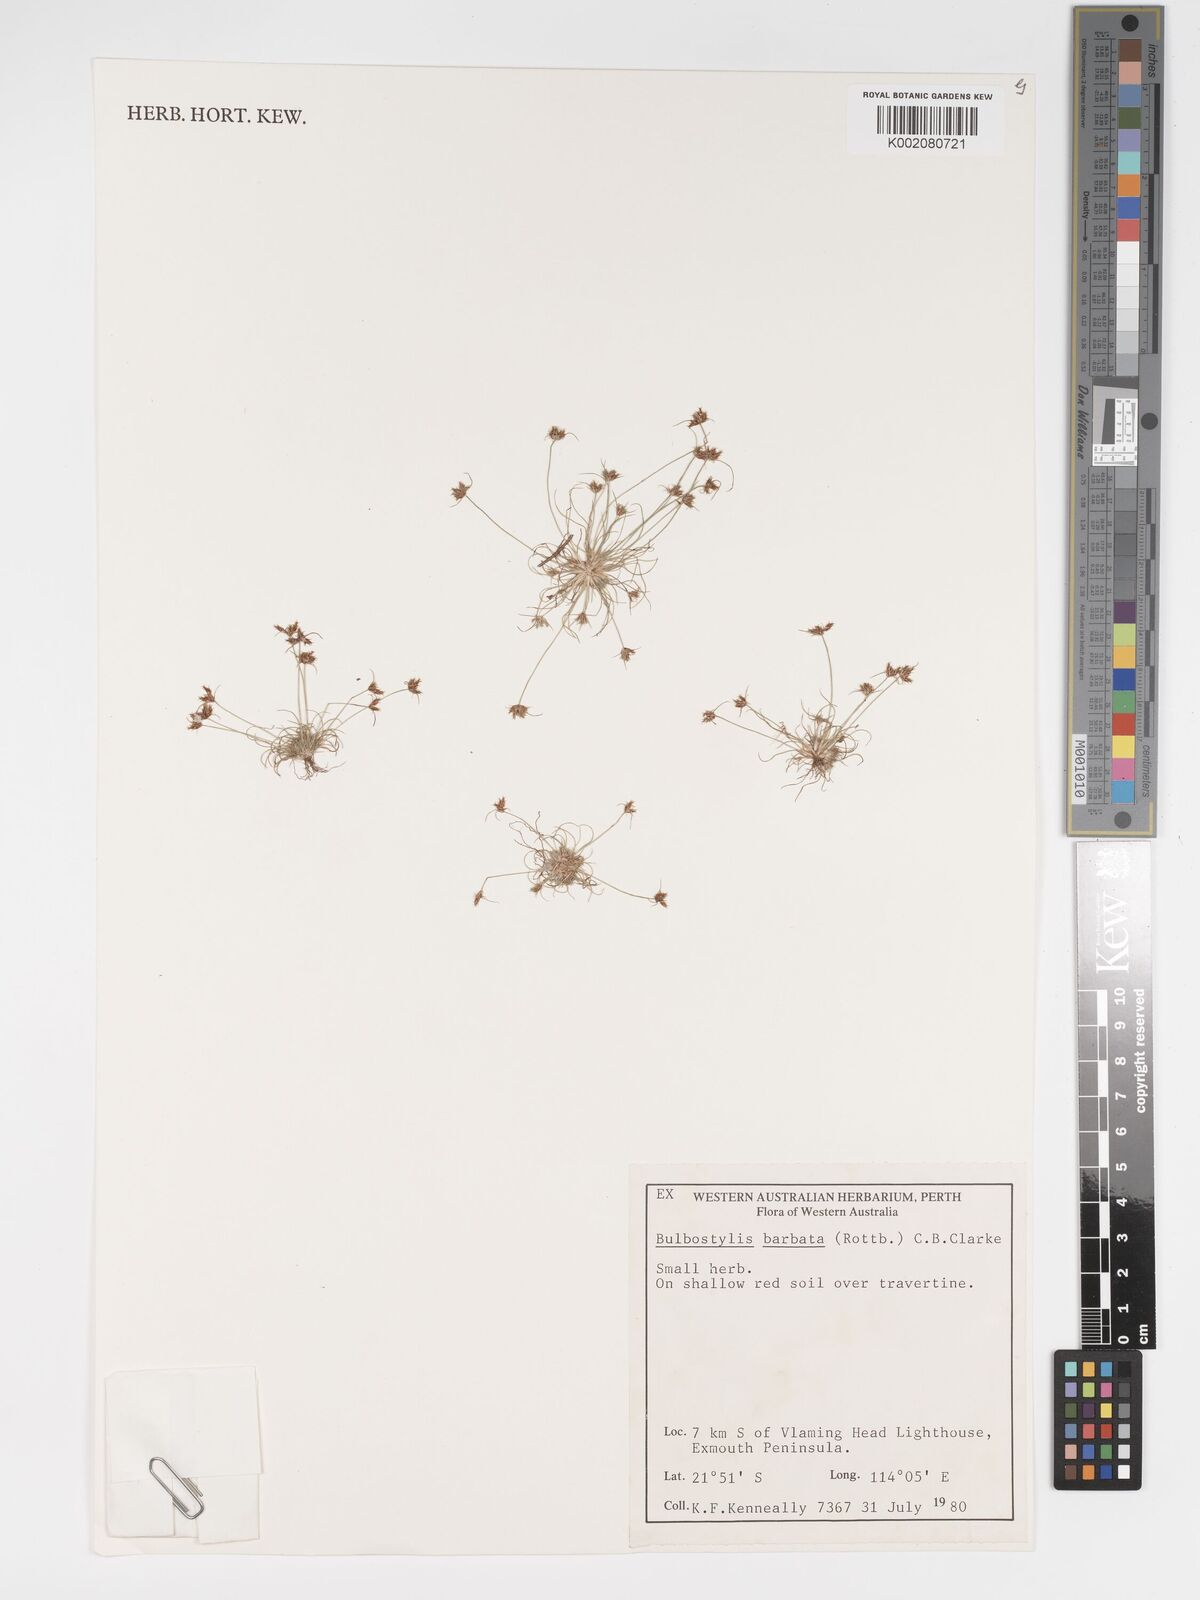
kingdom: Plantae
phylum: Tracheophyta
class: Liliopsida
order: Poales
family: Cyperaceae
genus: Bulbostylis
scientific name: Bulbostylis barbata
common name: Watergrass
